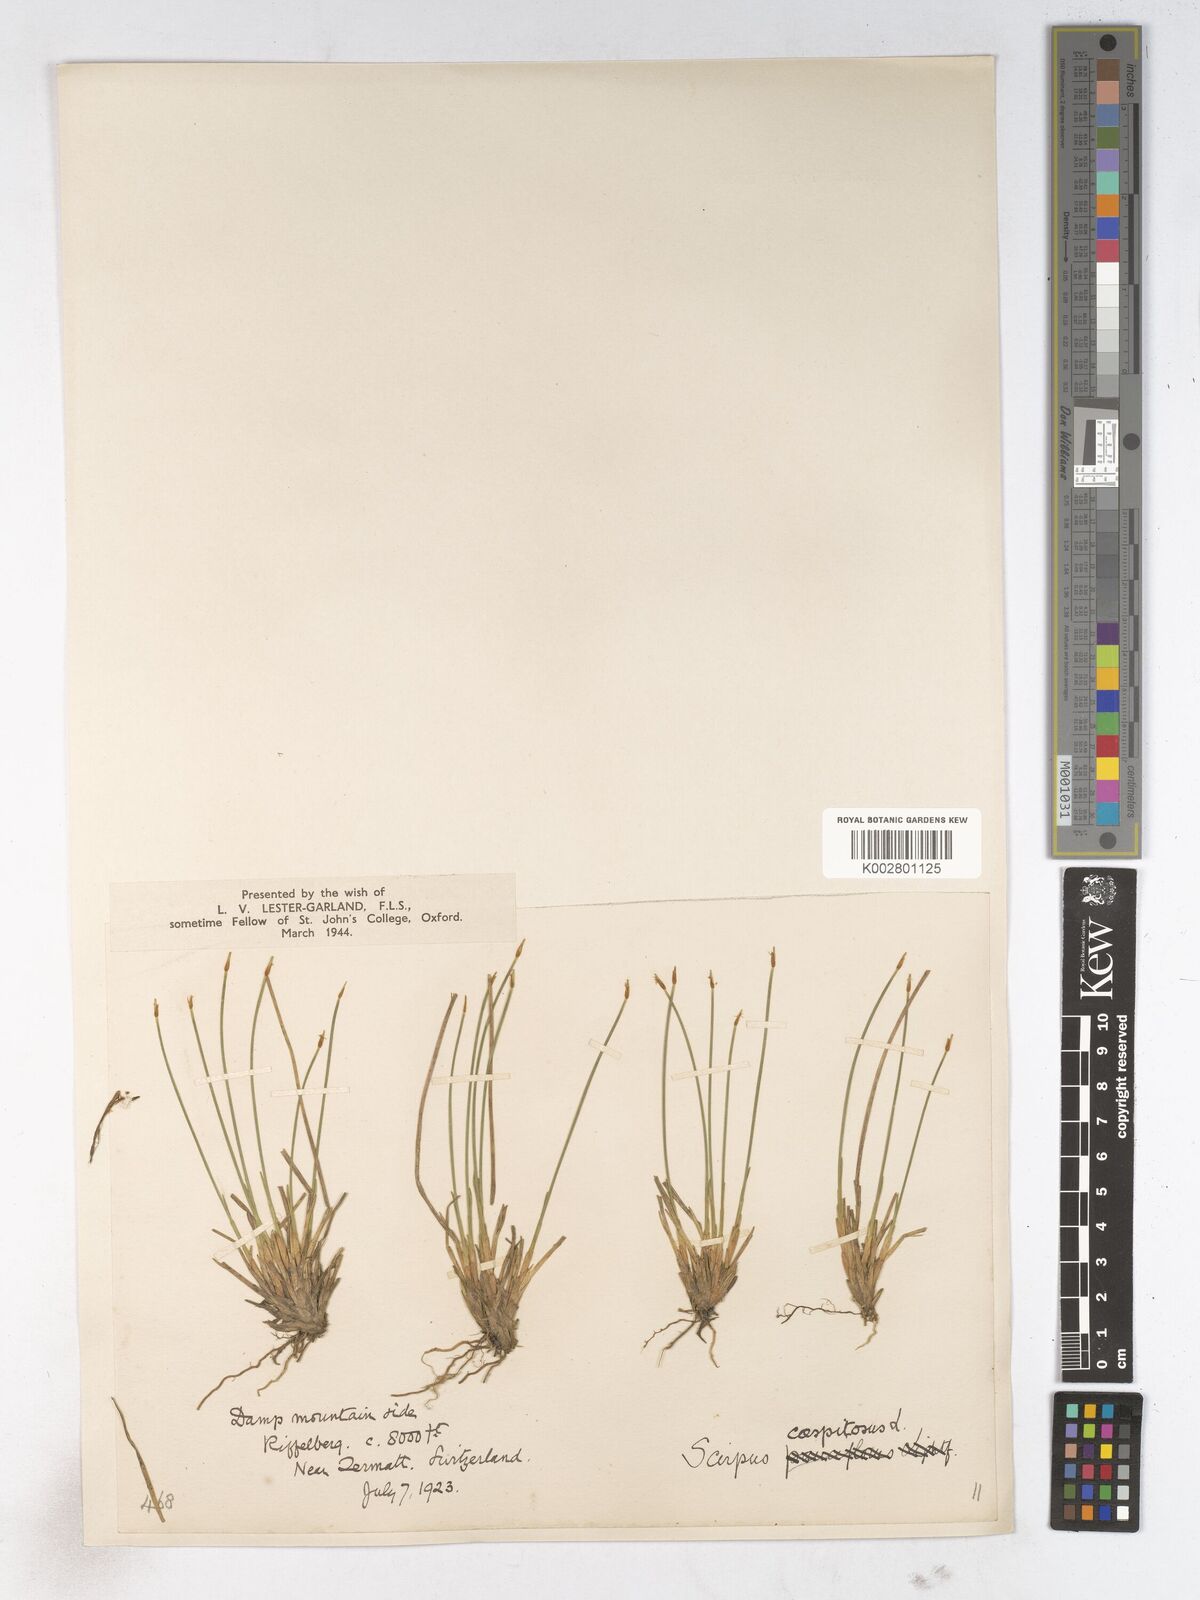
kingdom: Plantae
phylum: Tracheophyta
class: Liliopsida
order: Poales
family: Cyperaceae
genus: Trichophorum
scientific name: Trichophorum cespitosum
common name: Cespitose bulrush
